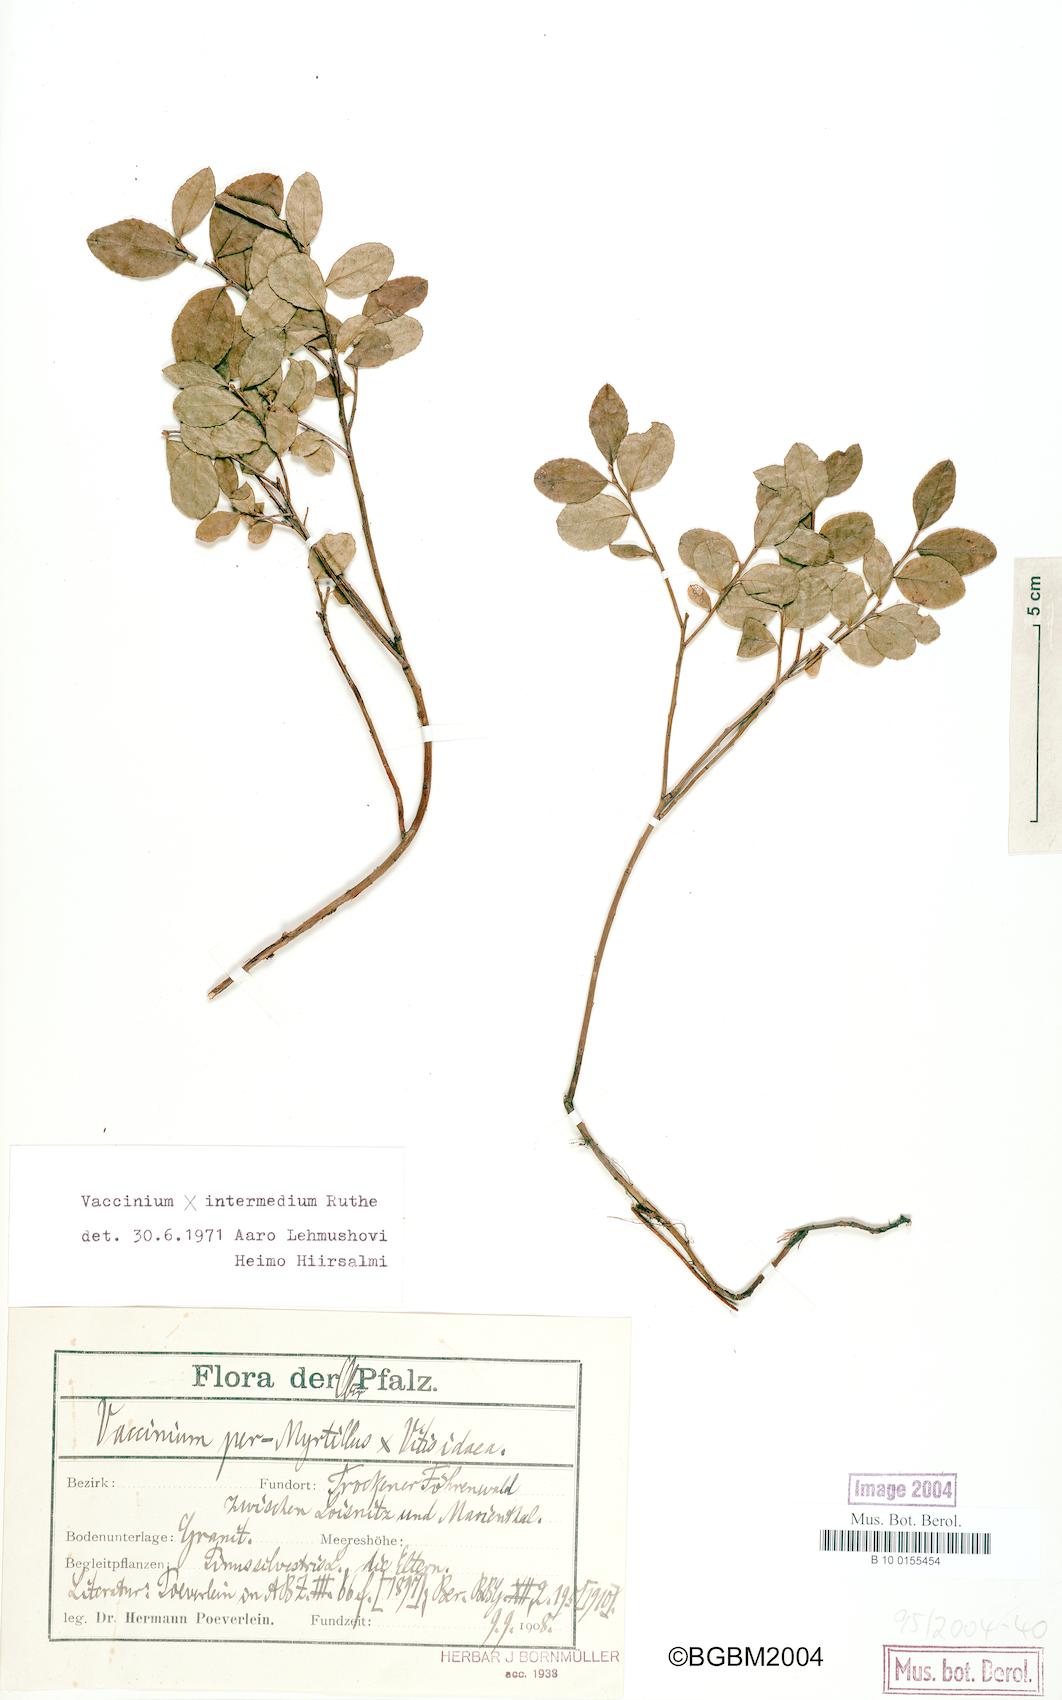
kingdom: Plantae
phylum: Tracheophyta
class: Magnoliopsida
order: Ericales
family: Ericaceae
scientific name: Ericaceae
